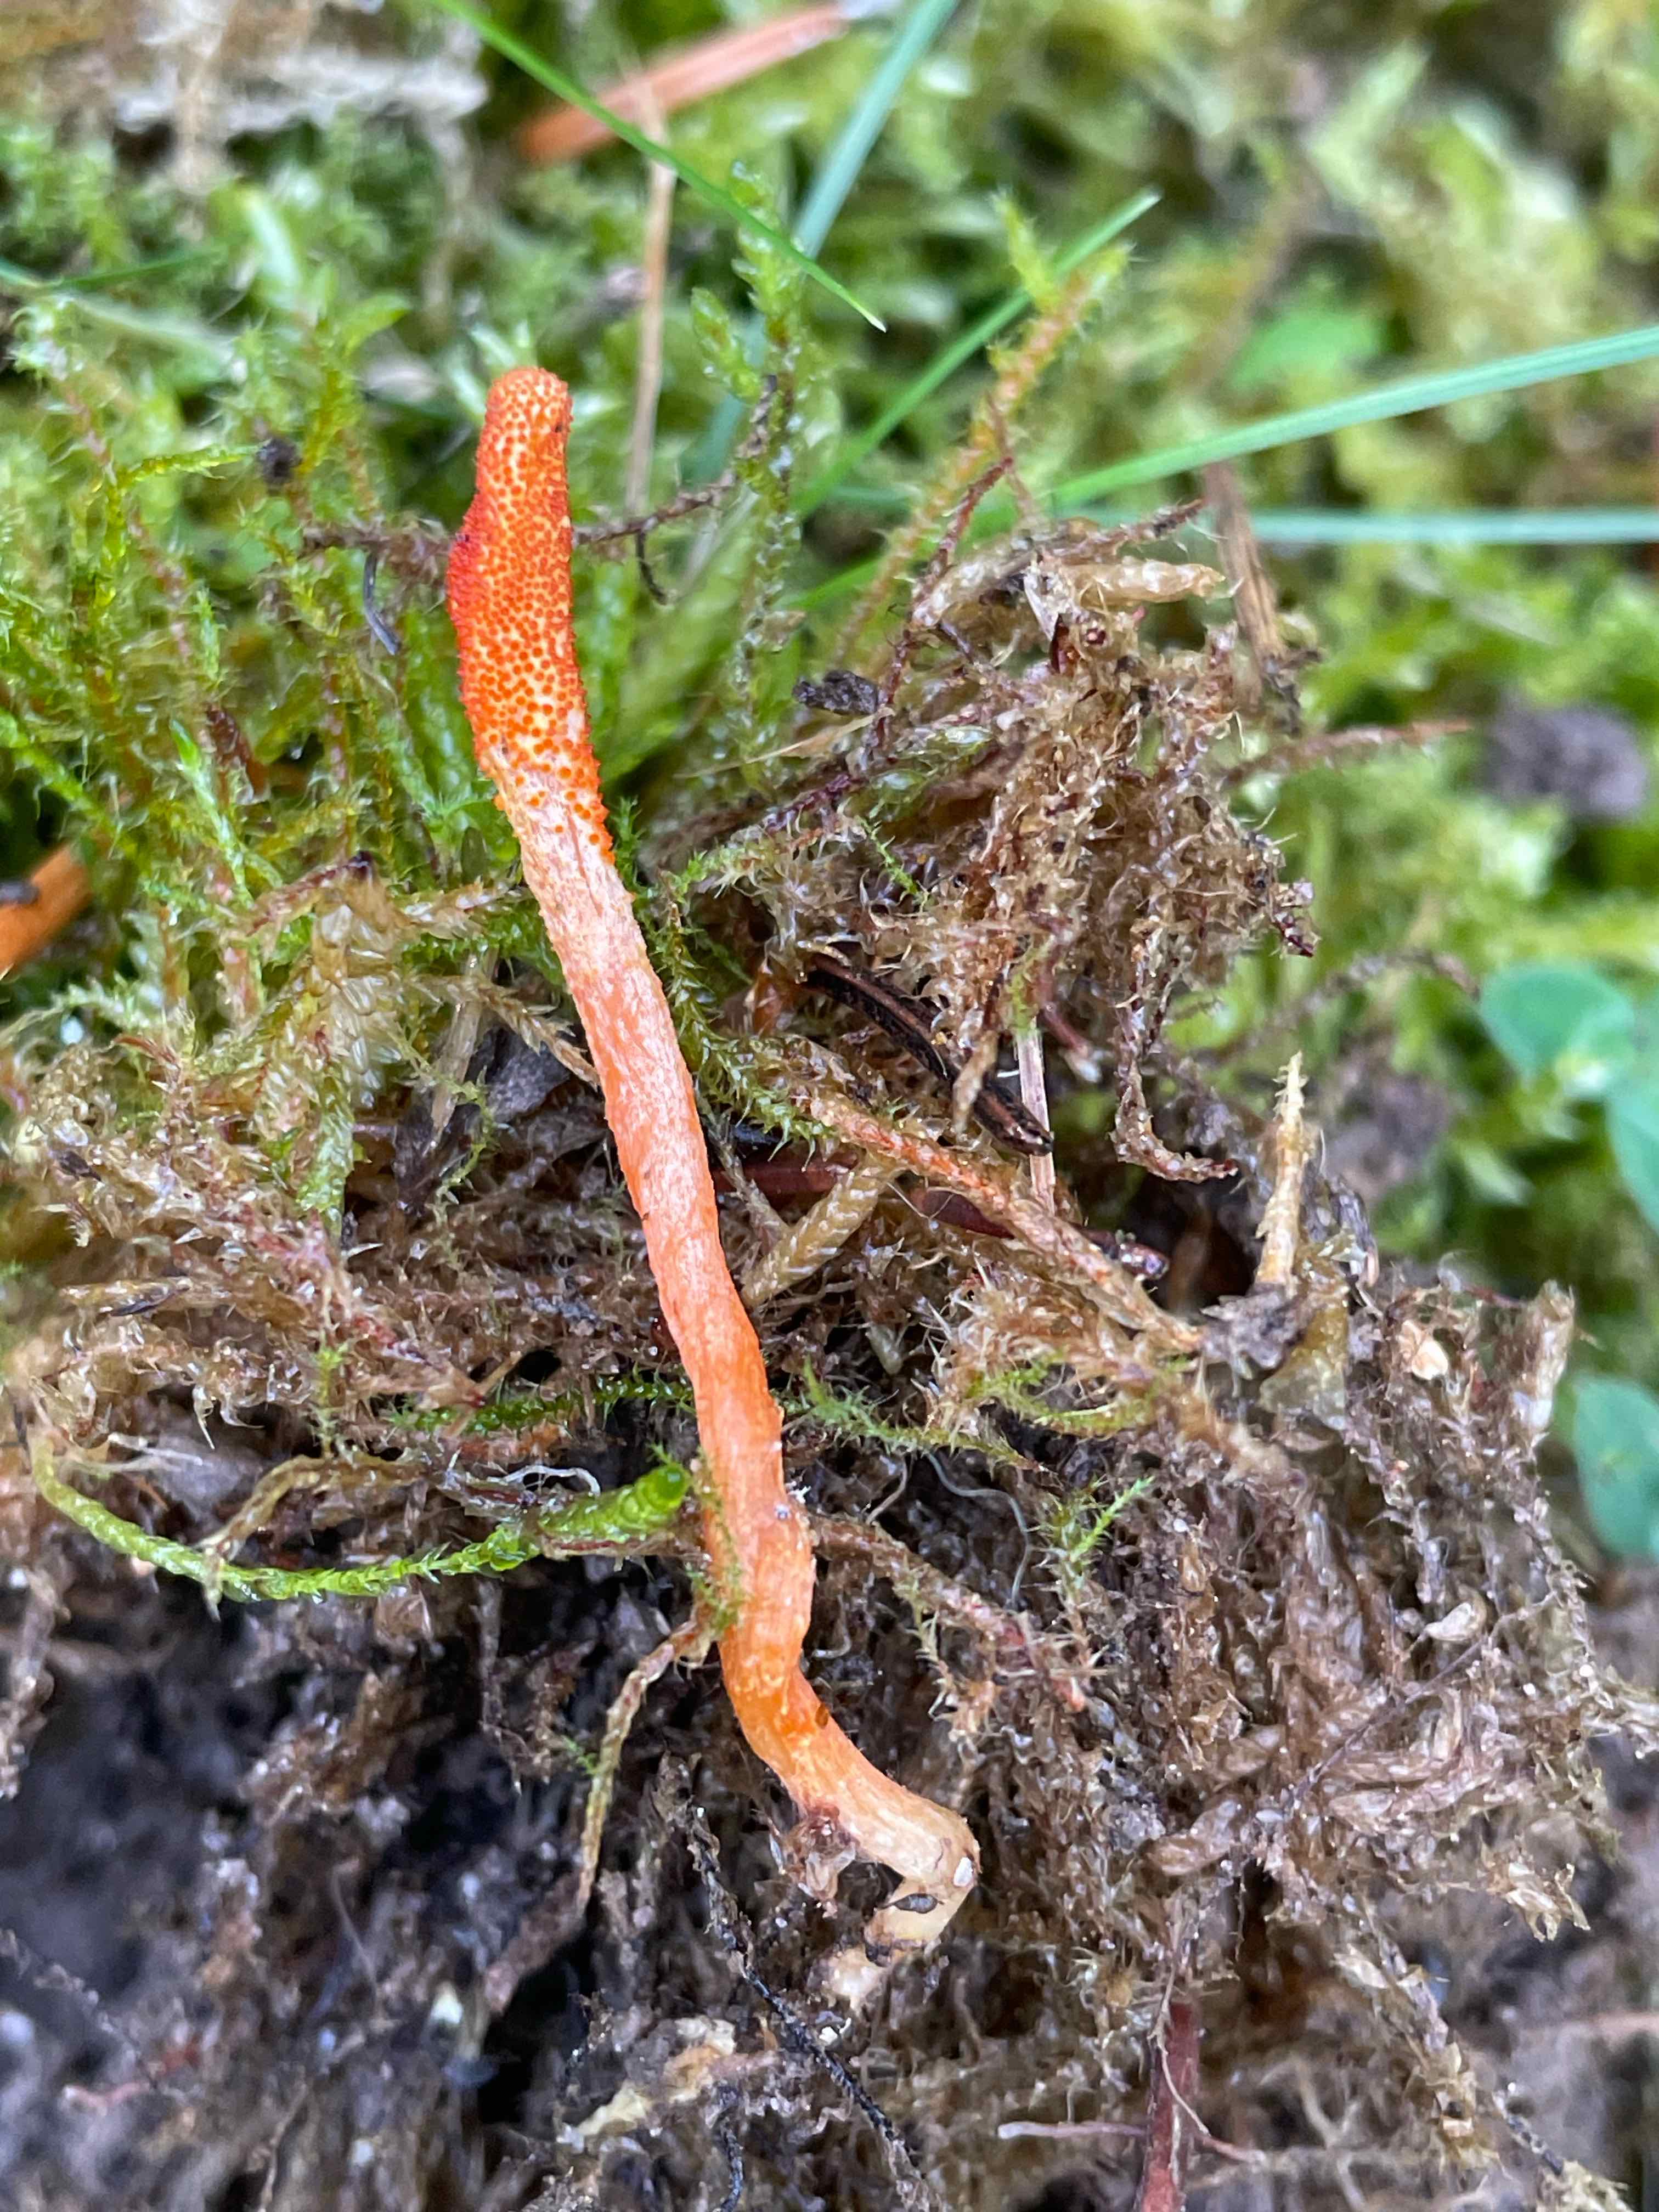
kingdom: Fungi
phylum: Ascomycota
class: Sordariomycetes
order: Hypocreales
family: Cordycipitaceae
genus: Cordyceps
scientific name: Cordyceps militaris
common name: puppe-snyltekølle
